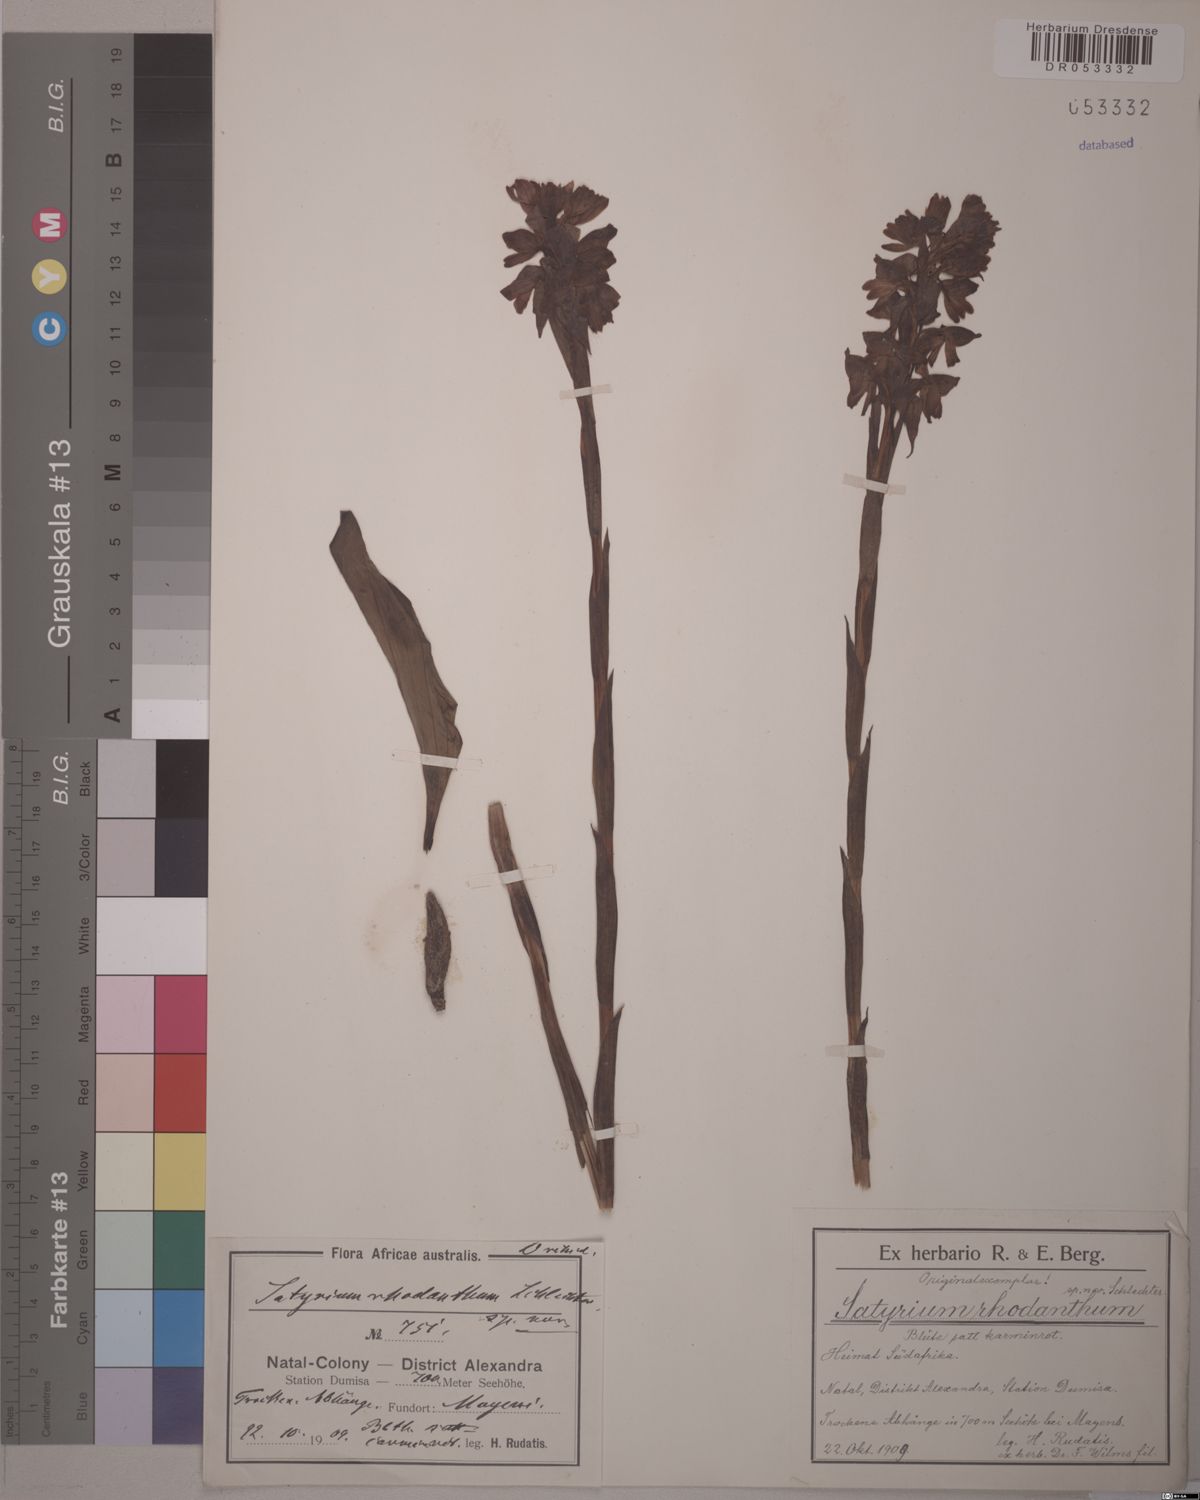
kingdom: Plantae
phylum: Tracheophyta
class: Liliopsida
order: Asparagales
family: Orchidaceae
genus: Satyrium
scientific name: Satyrium rhodanthum
